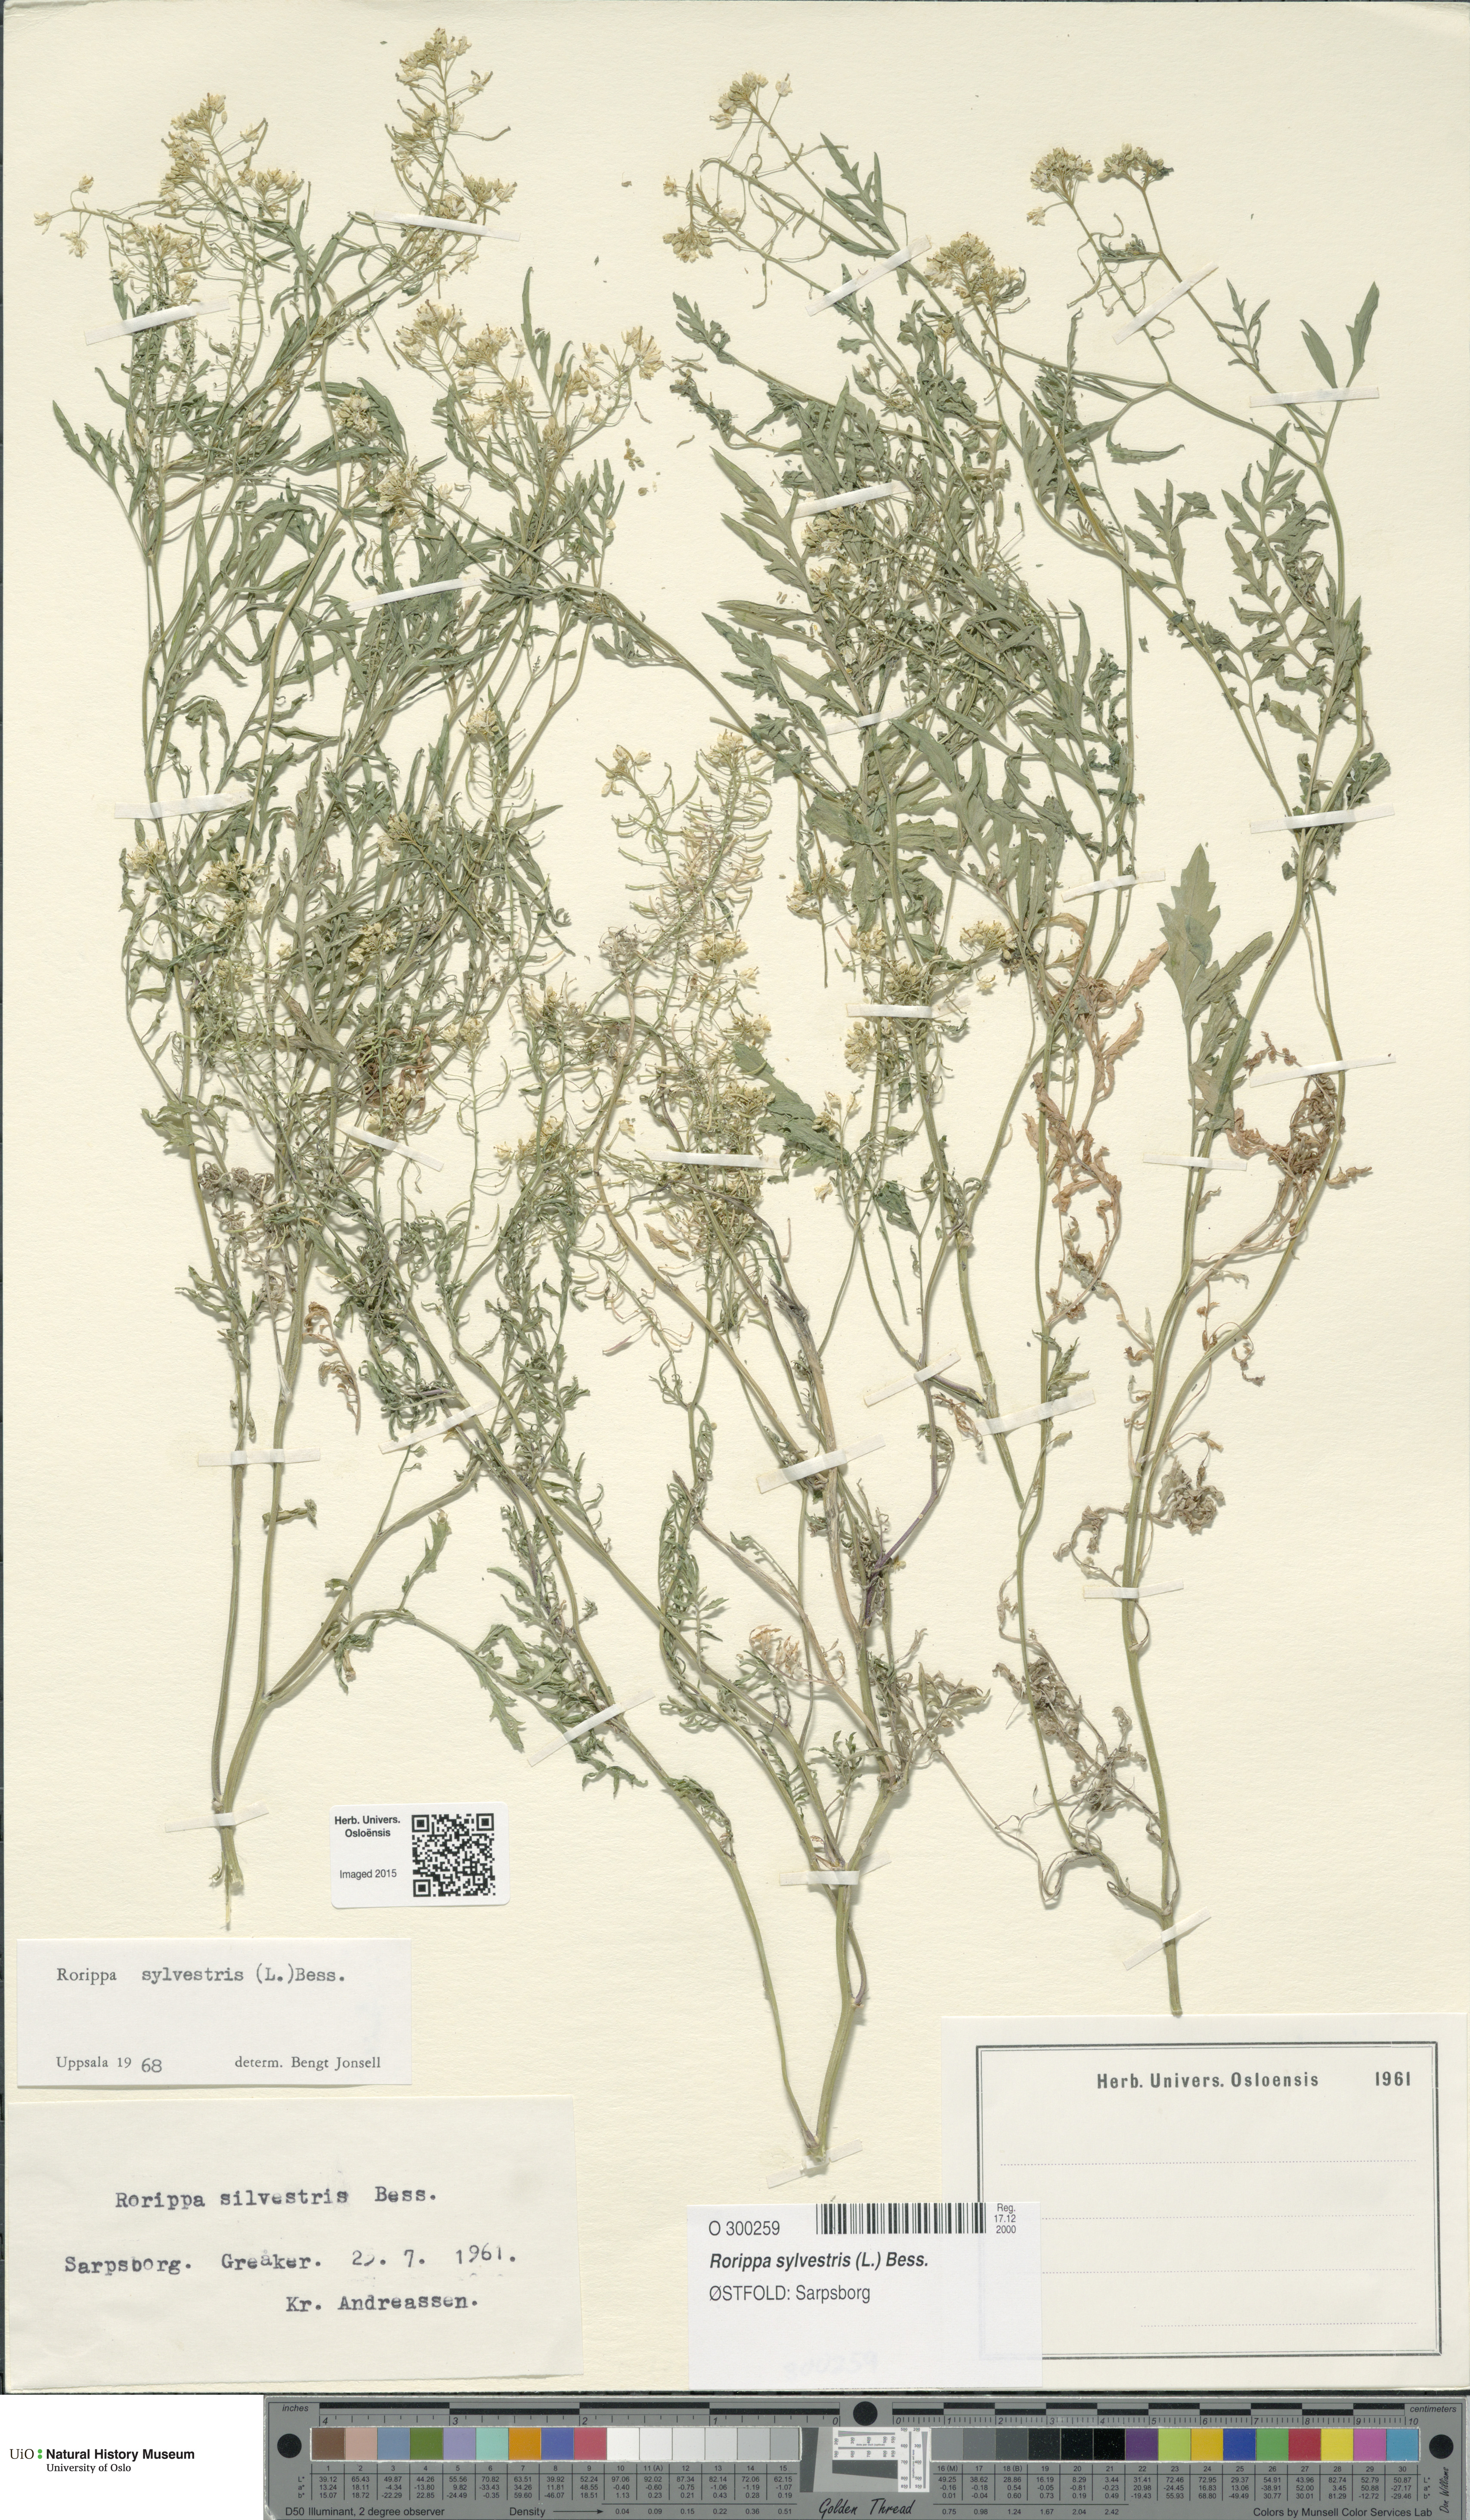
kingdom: Plantae
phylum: Tracheophyta
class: Magnoliopsida
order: Brassicales
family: Brassicaceae
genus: Rorippa
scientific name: Rorippa sylvestris
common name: Creeping yellowcress
